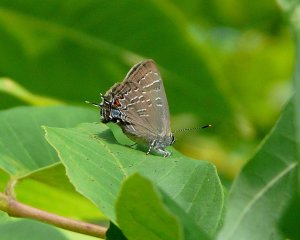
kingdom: Animalia
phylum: Arthropoda
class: Insecta
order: Lepidoptera
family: Lycaenidae
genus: Strymon
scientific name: Strymon caryaevorus
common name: Hickory Hairstreak
